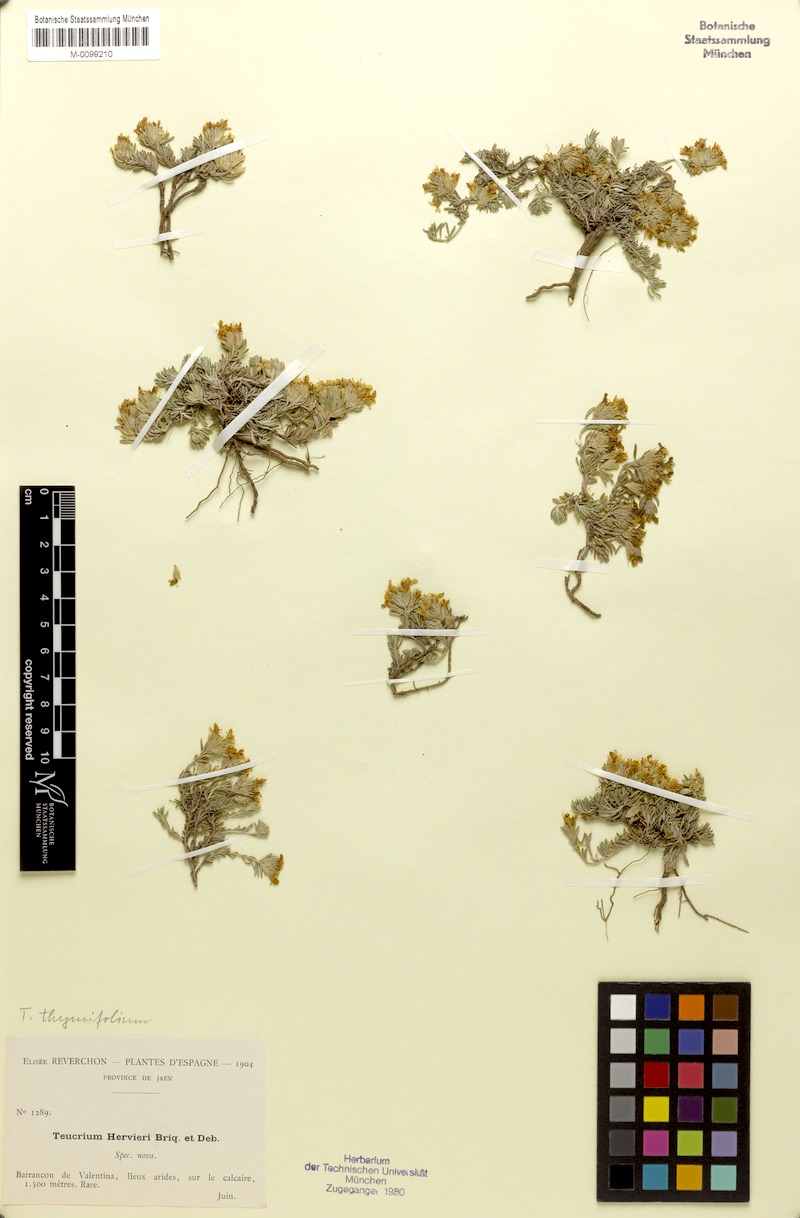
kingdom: Plantae
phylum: Tracheophyta
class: Magnoliopsida
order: Lamiales
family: Lamiaceae
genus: Teucrium
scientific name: Teucrium thymifolium
